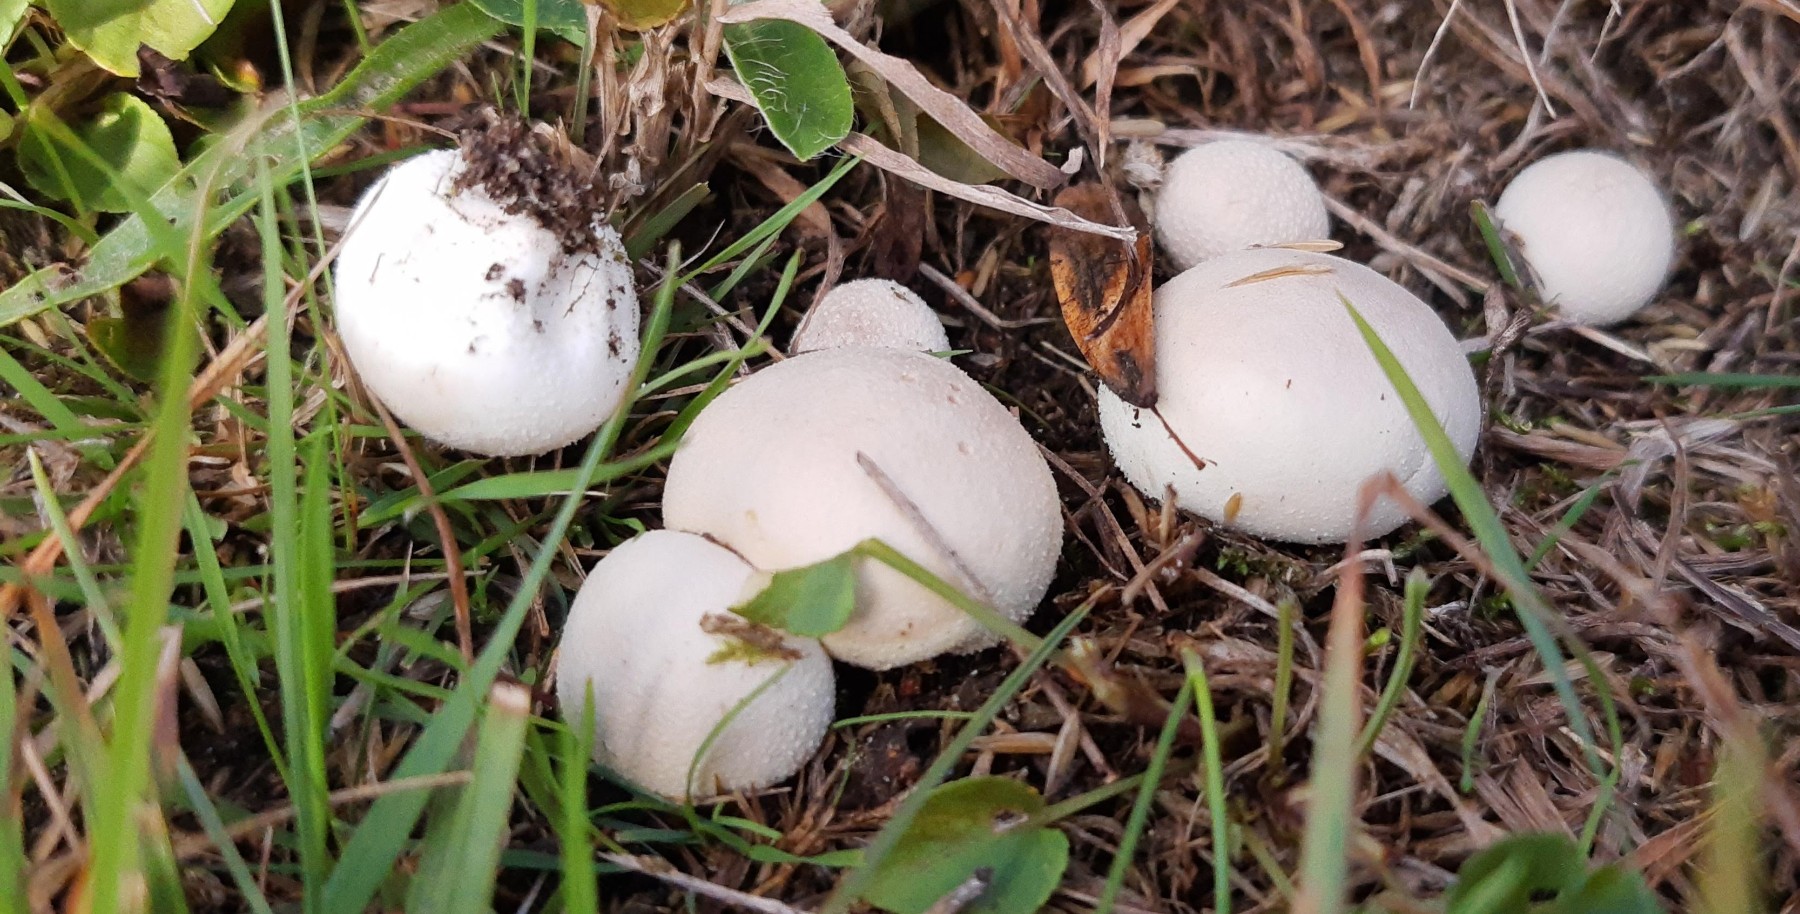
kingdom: Fungi
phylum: Basidiomycota
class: Agaricomycetes
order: Agaricales
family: Agaricaceae
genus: Lycoperdon
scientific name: Lycoperdon
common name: støvbold
